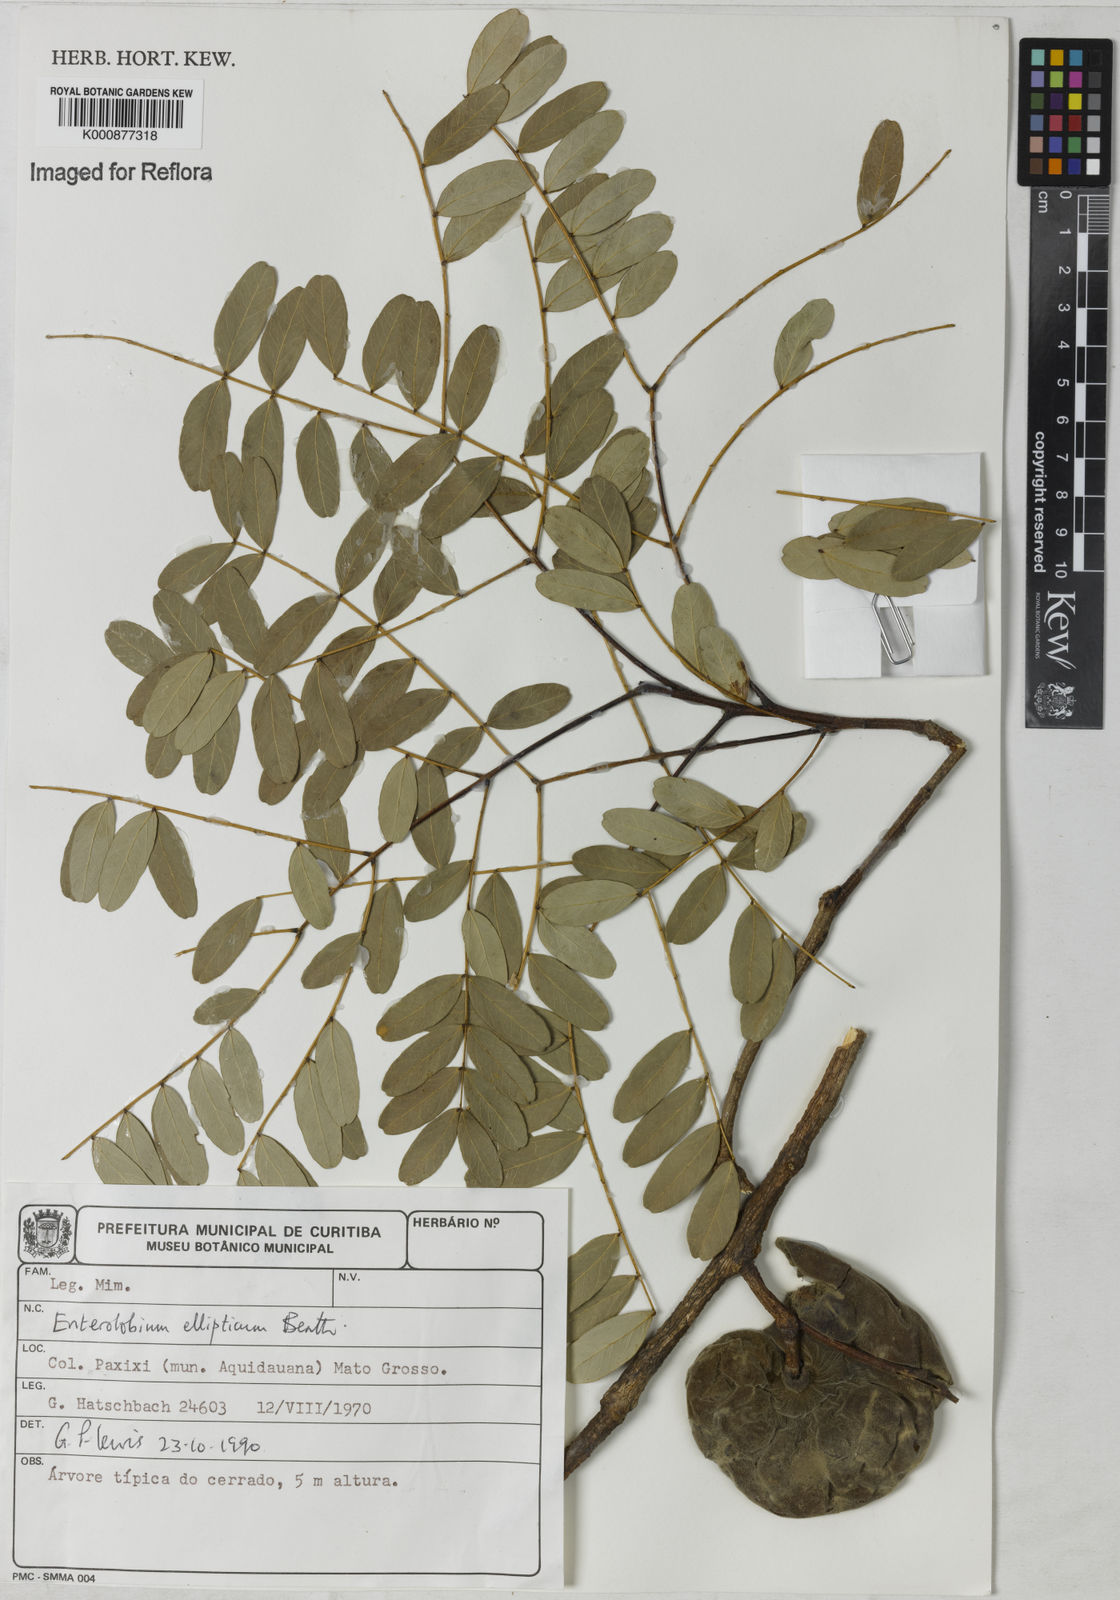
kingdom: Plantae
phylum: Tracheophyta
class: Magnoliopsida
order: Fabales
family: Fabaceae
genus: Enterolobium
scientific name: Enterolobium gummiferum
